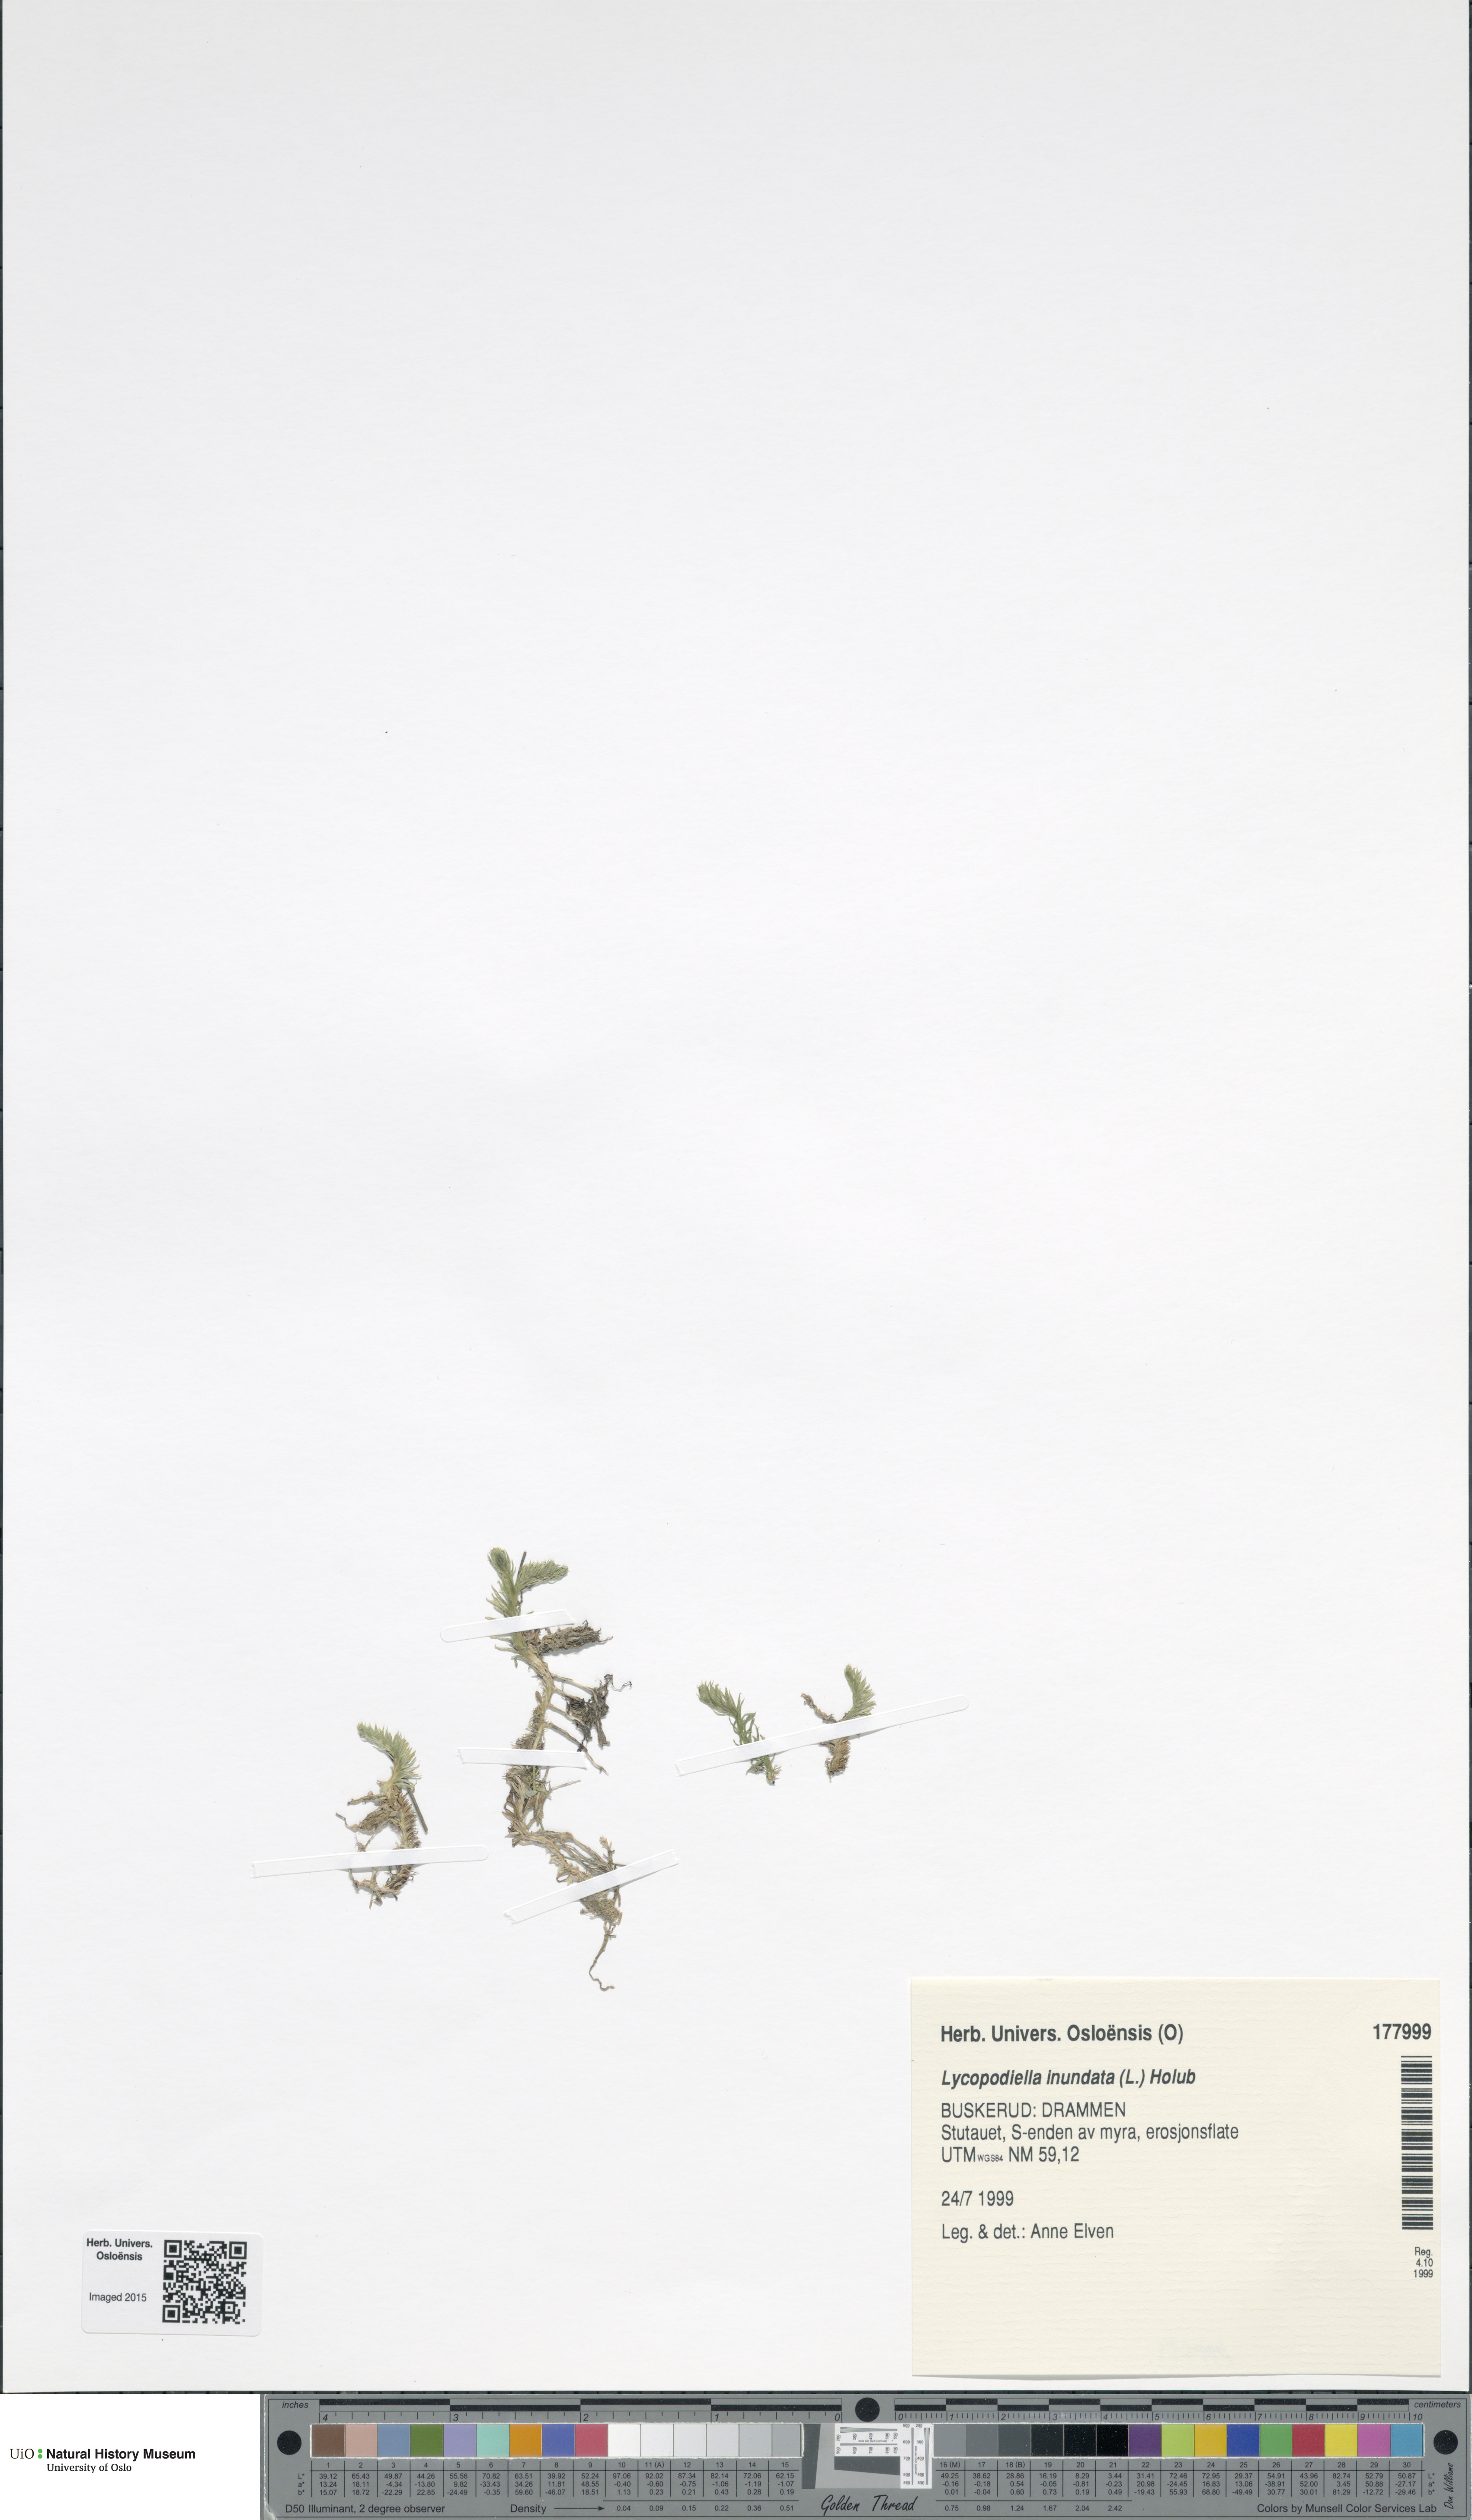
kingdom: Plantae
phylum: Tracheophyta
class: Lycopodiopsida
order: Lycopodiales
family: Lycopodiaceae
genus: Lycopodiella
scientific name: Lycopodiella inundata
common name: Marsh clubmoss
